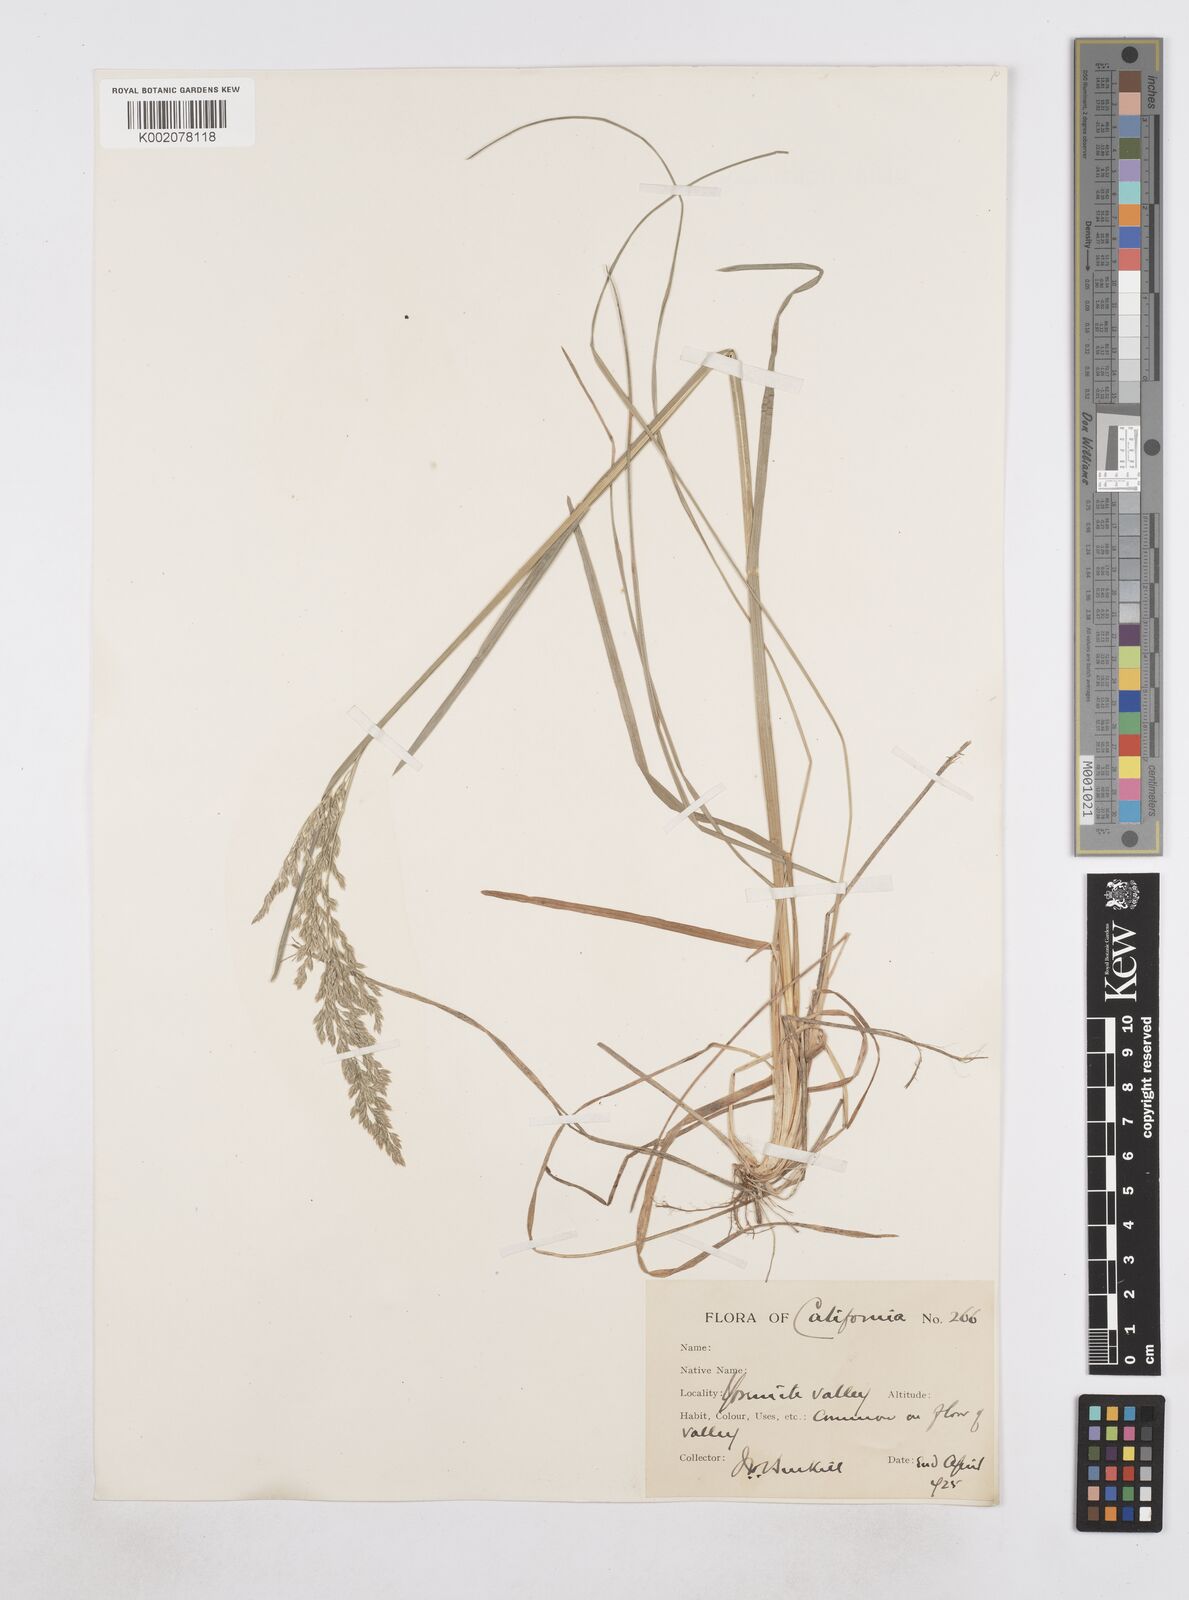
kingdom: Plantae
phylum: Tracheophyta
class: Liliopsida
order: Poales
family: Poaceae
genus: Poa
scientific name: Poa
